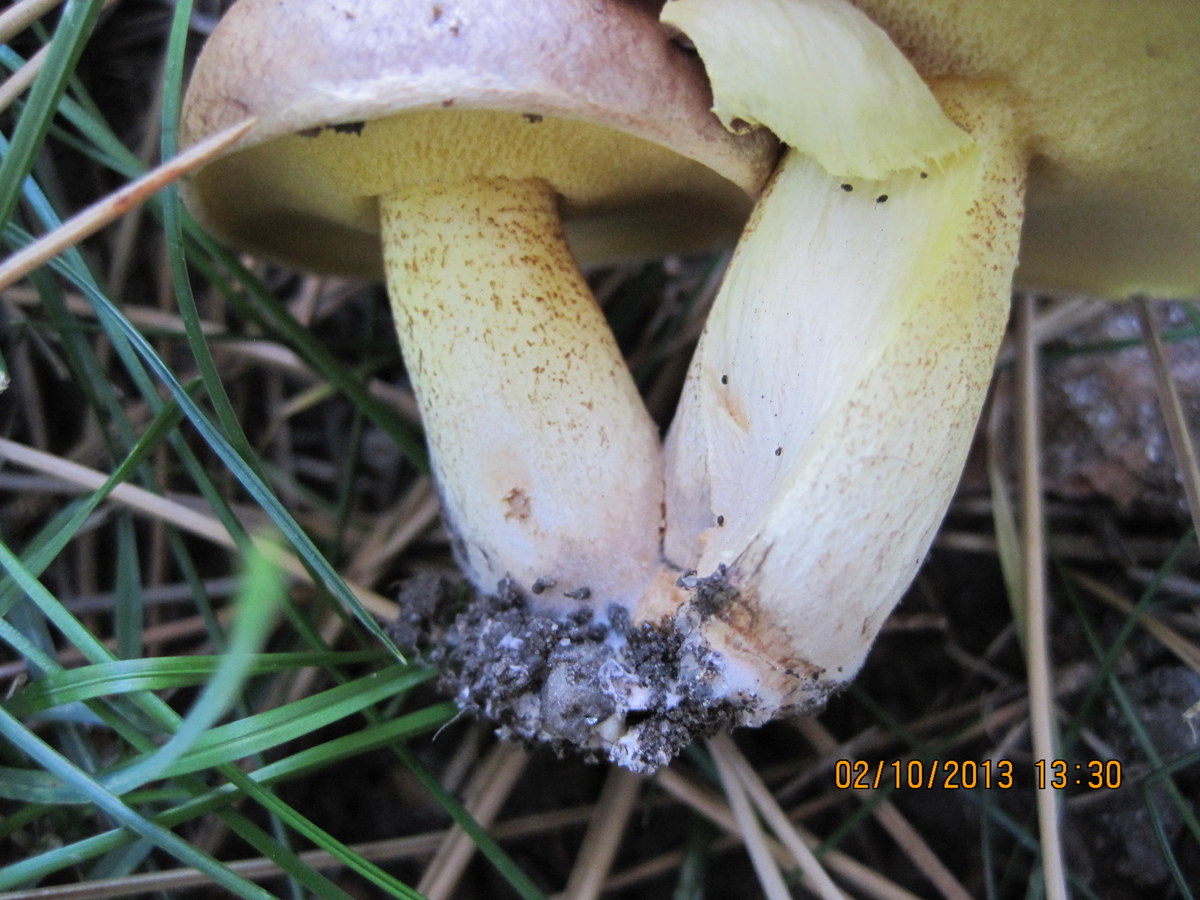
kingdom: Fungi
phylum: Basidiomycota
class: Agaricomycetes
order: Boletales
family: Suillaceae
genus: Suillus
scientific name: Suillus collinitus
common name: rosafodet slimrørhat
